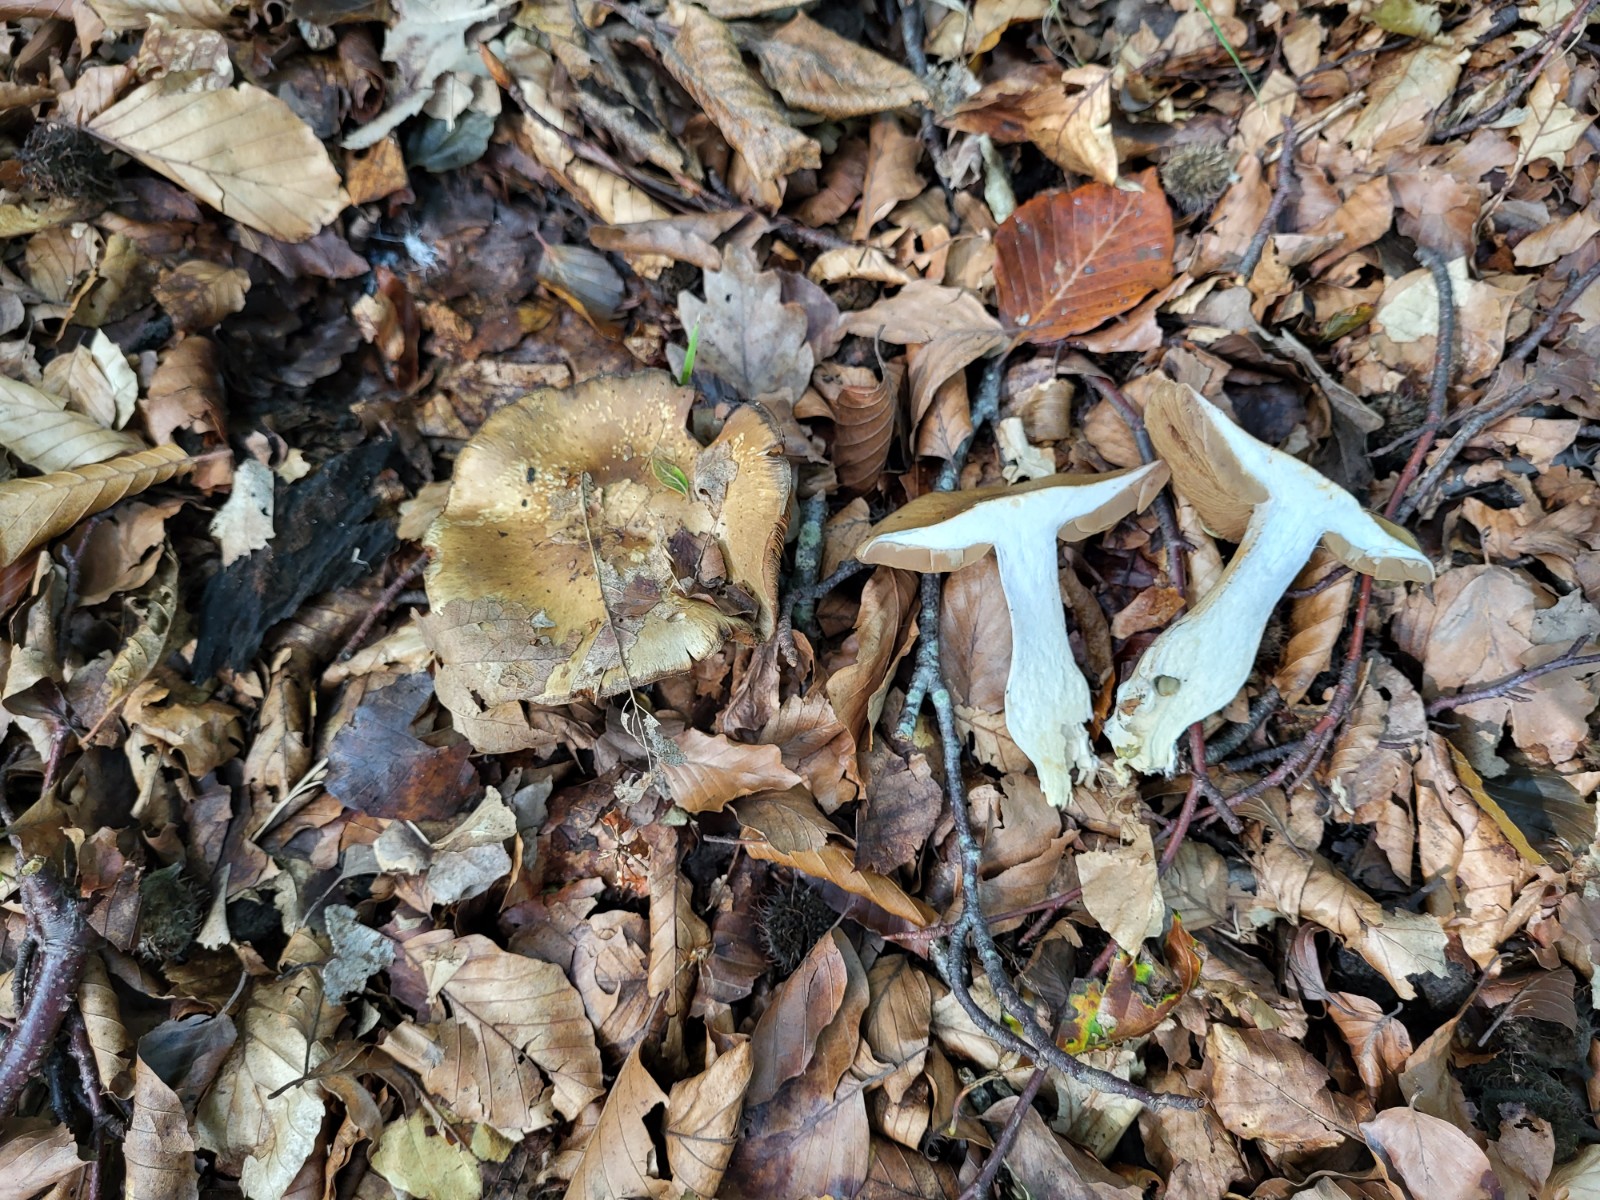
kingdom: Fungi
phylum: Basidiomycota
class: Agaricomycetes
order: Agaricales
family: Cortinariaceae
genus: Cortinarius
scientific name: Cortinarius
